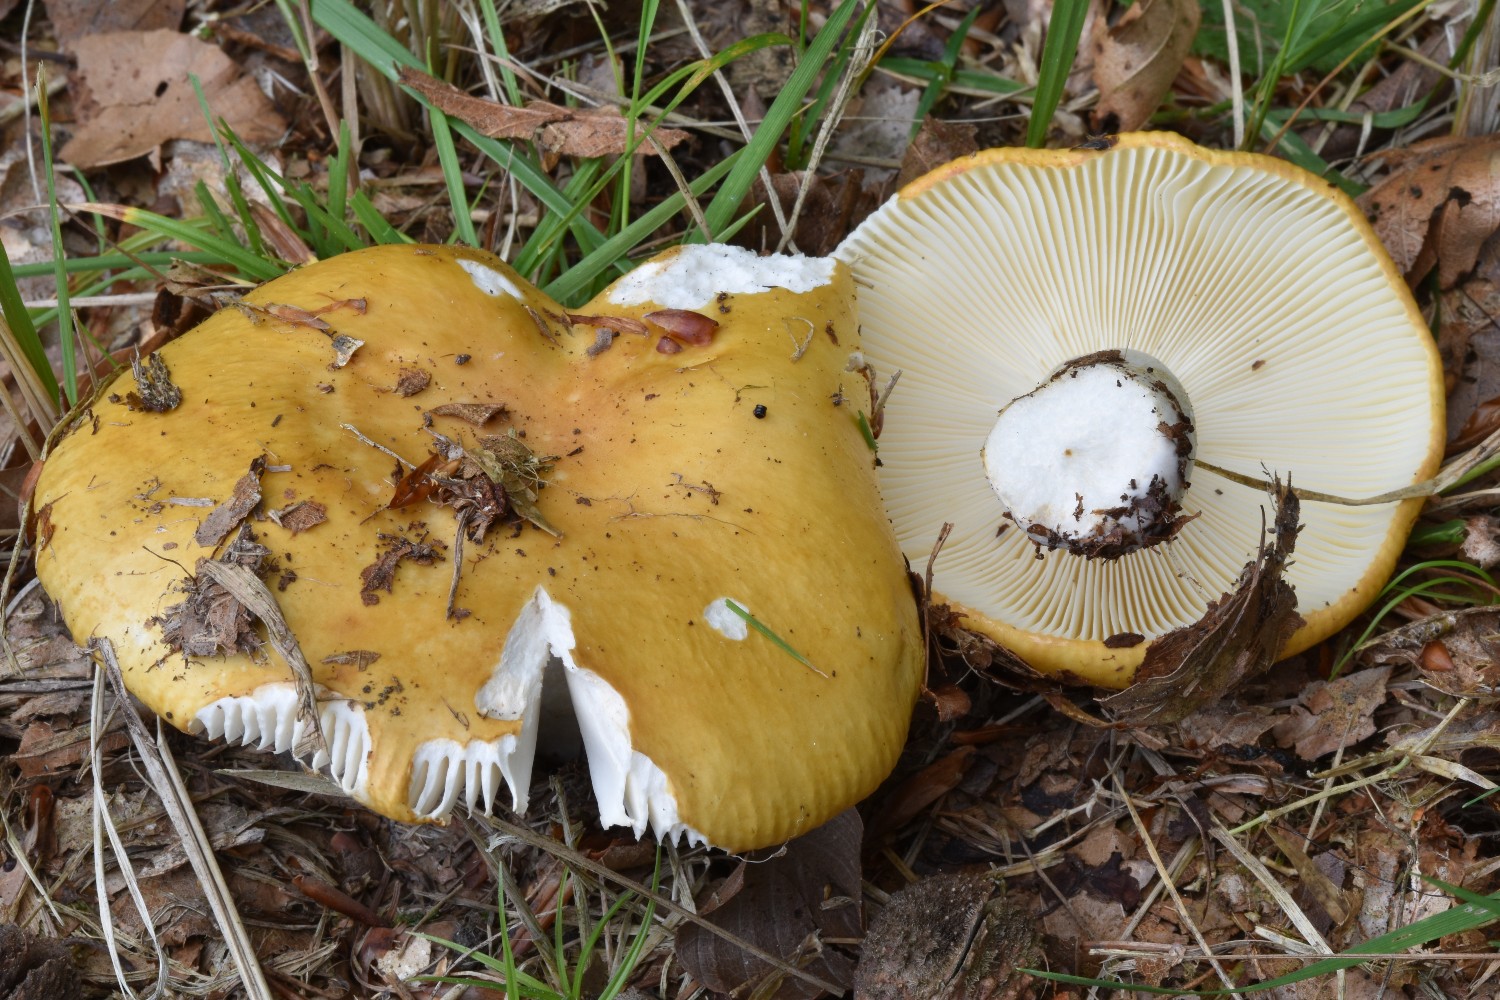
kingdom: Fungi
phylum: Basidiomycota
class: Agaricomycetes
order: Russulales
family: Russulaceae
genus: Russula
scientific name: Russula ochroleuca
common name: okkergul skørhat
